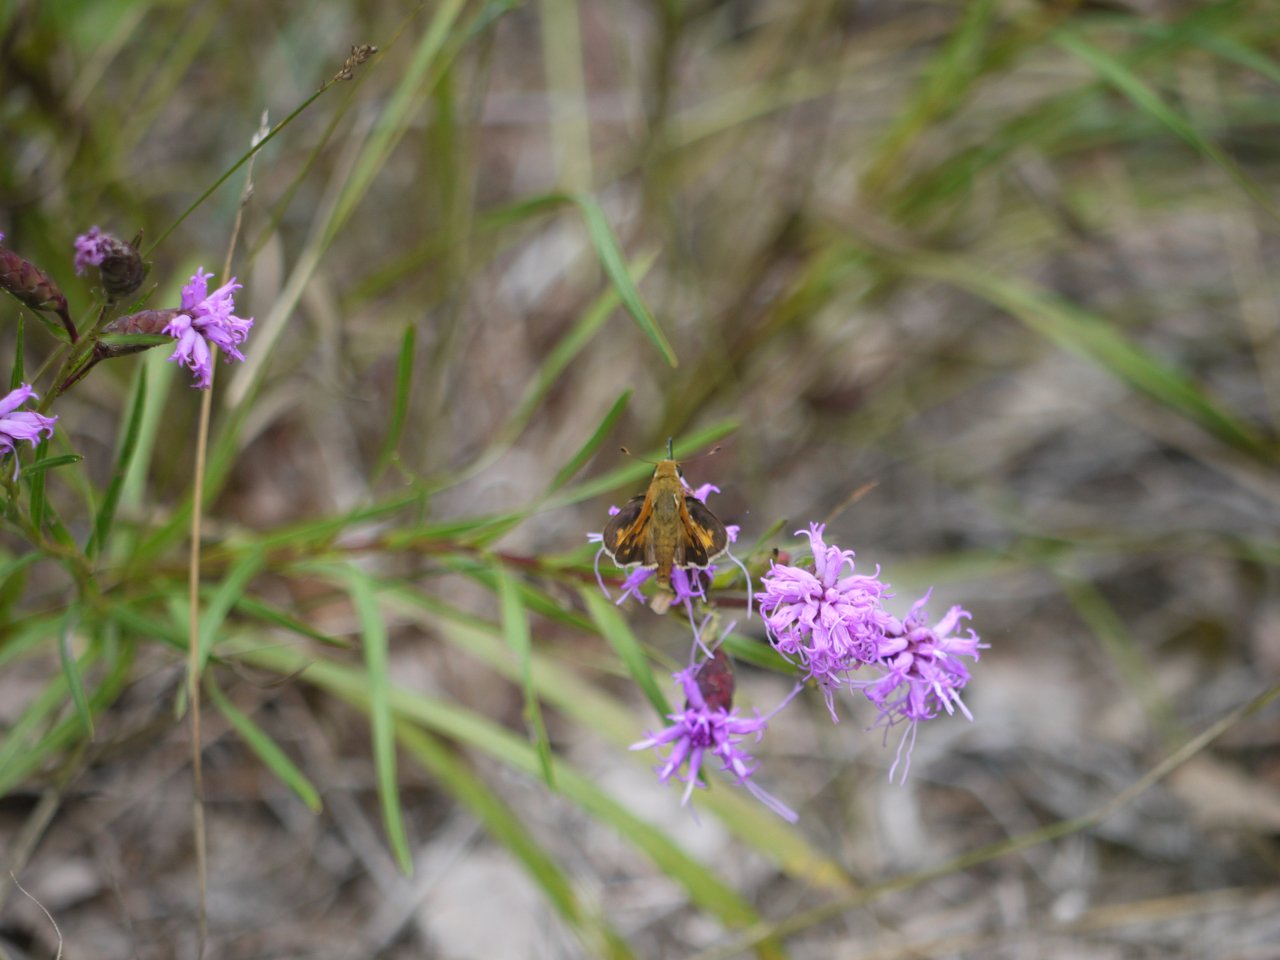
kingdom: Animalia
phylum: Arthropoda
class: Insecta
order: Lepidoptera
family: Hesperiidae
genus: Hesperia
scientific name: Hesperia leonardus
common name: Leonard's Skipper
